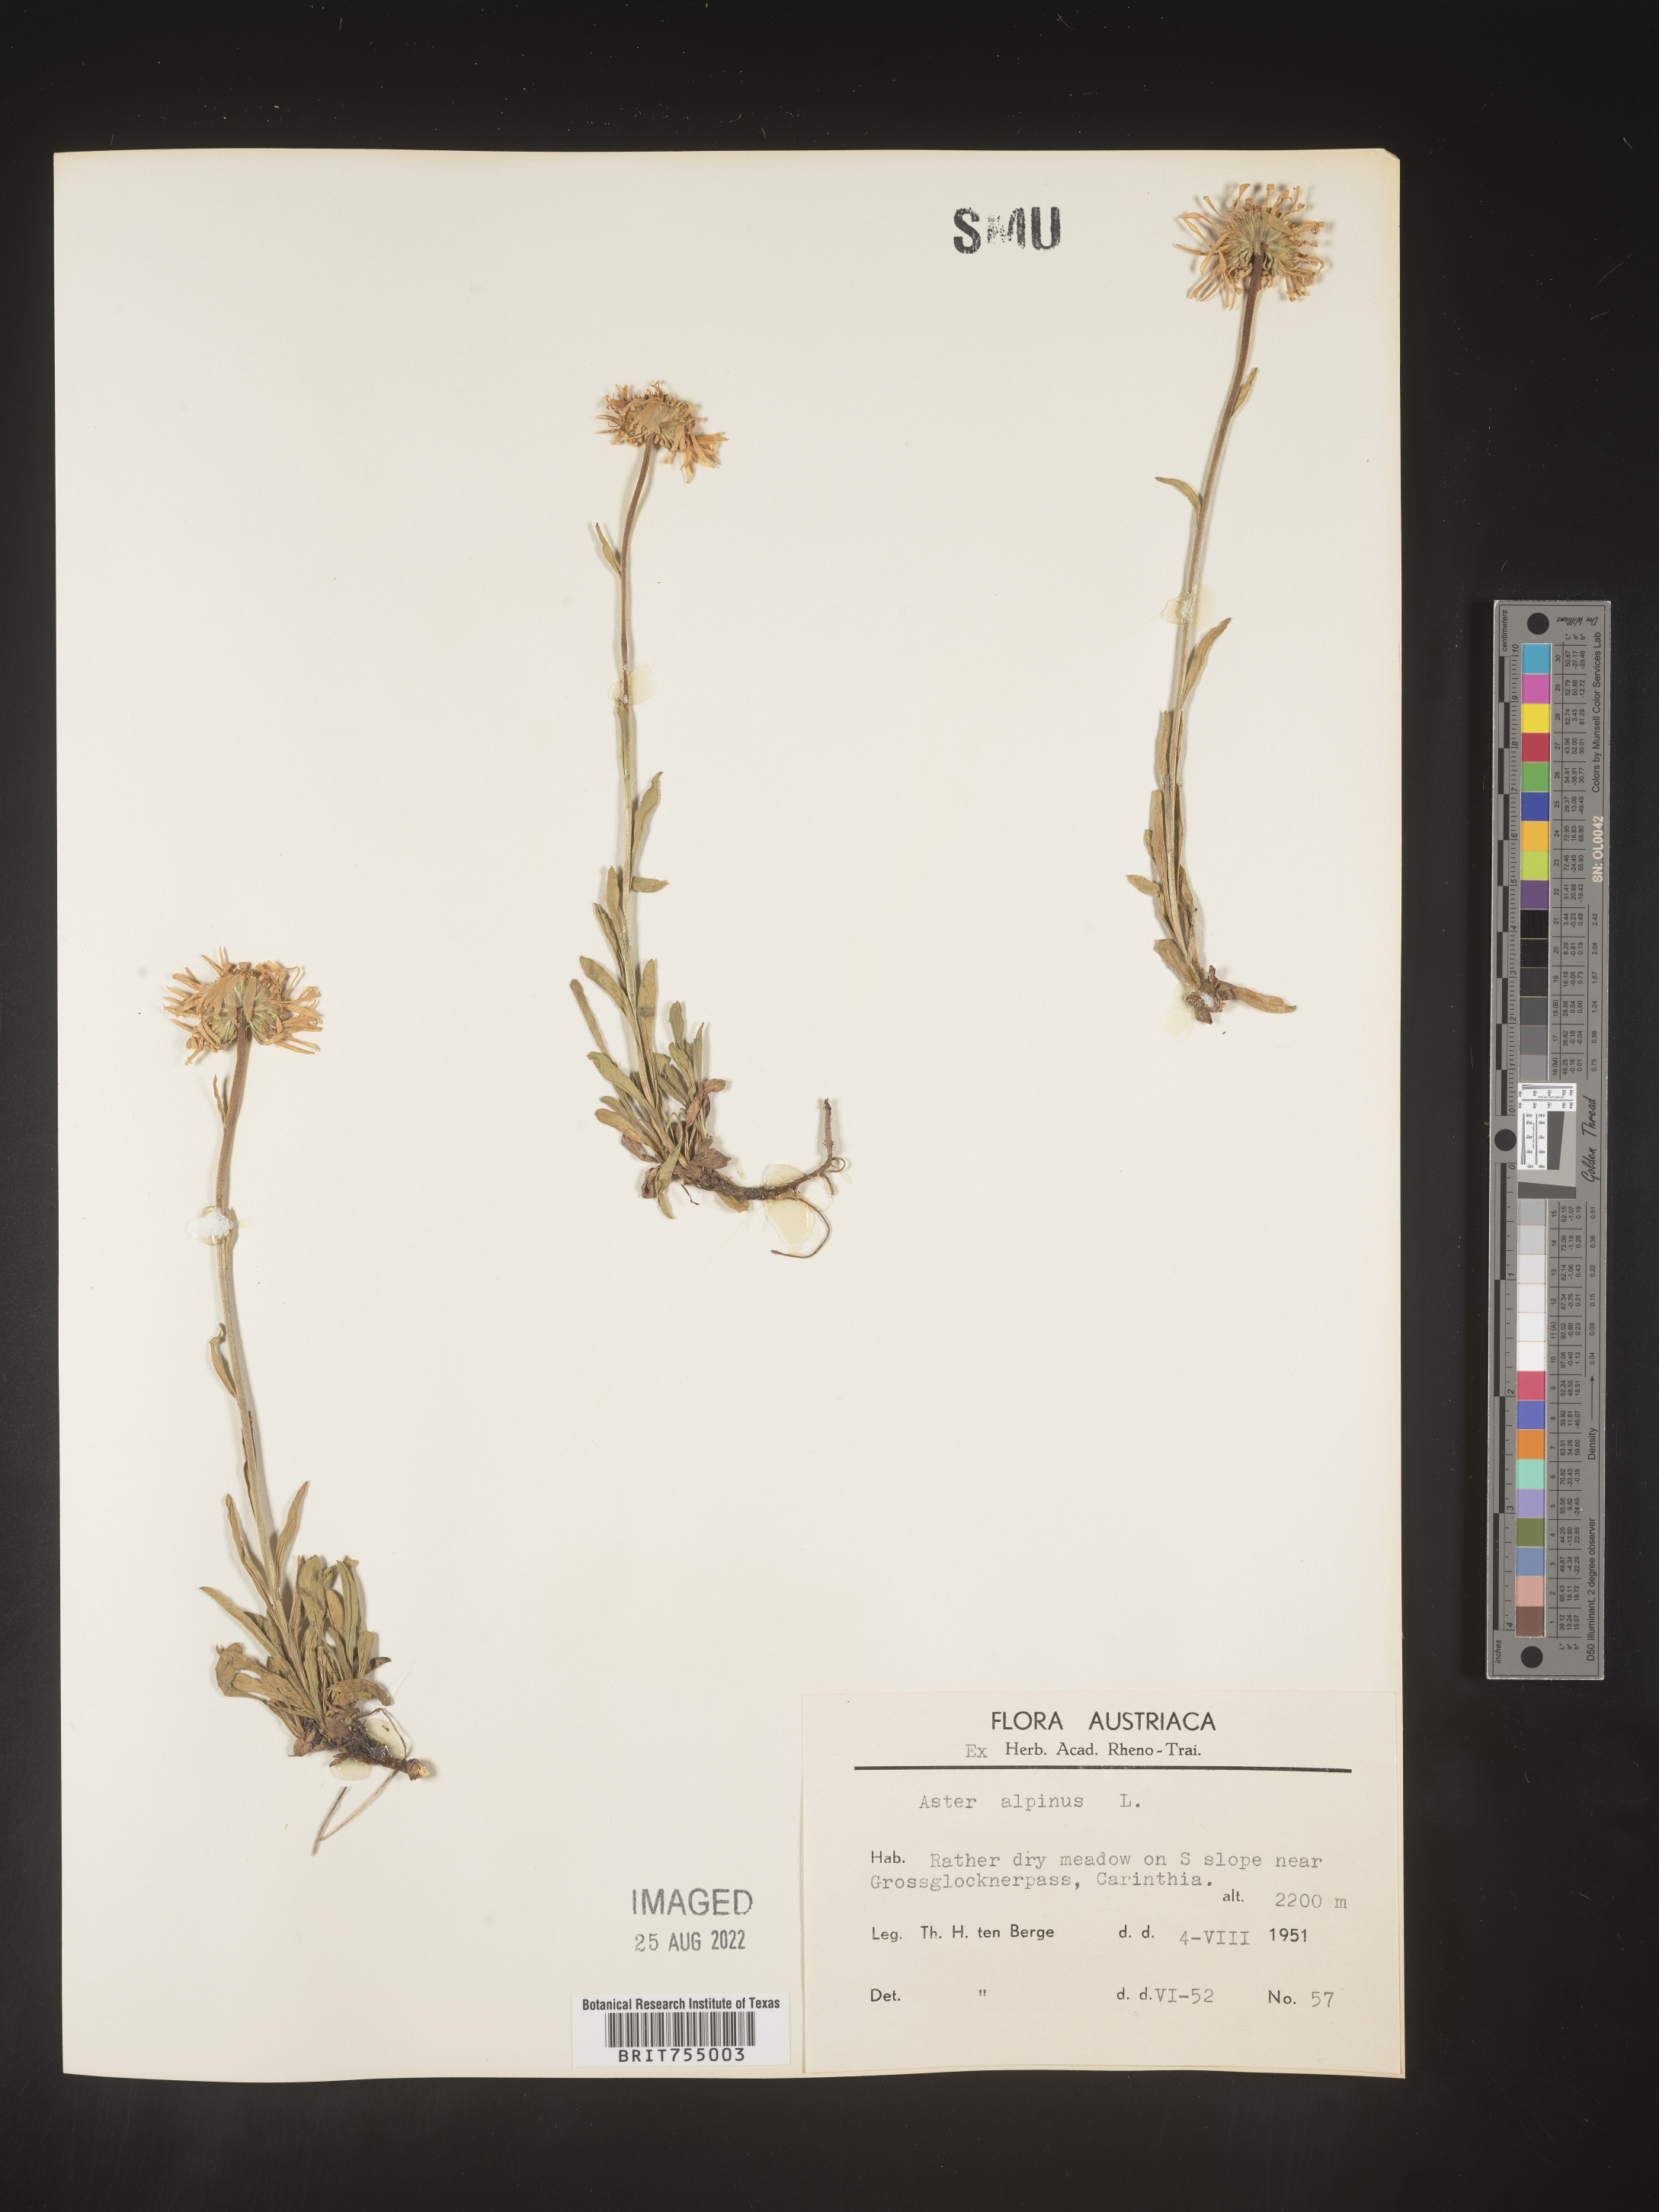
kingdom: Plantae
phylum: Tracheophyta
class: Magnoliopsida
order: Asterales
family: Asteraceae
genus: Symphyotrichum
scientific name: Symphyotrichum
